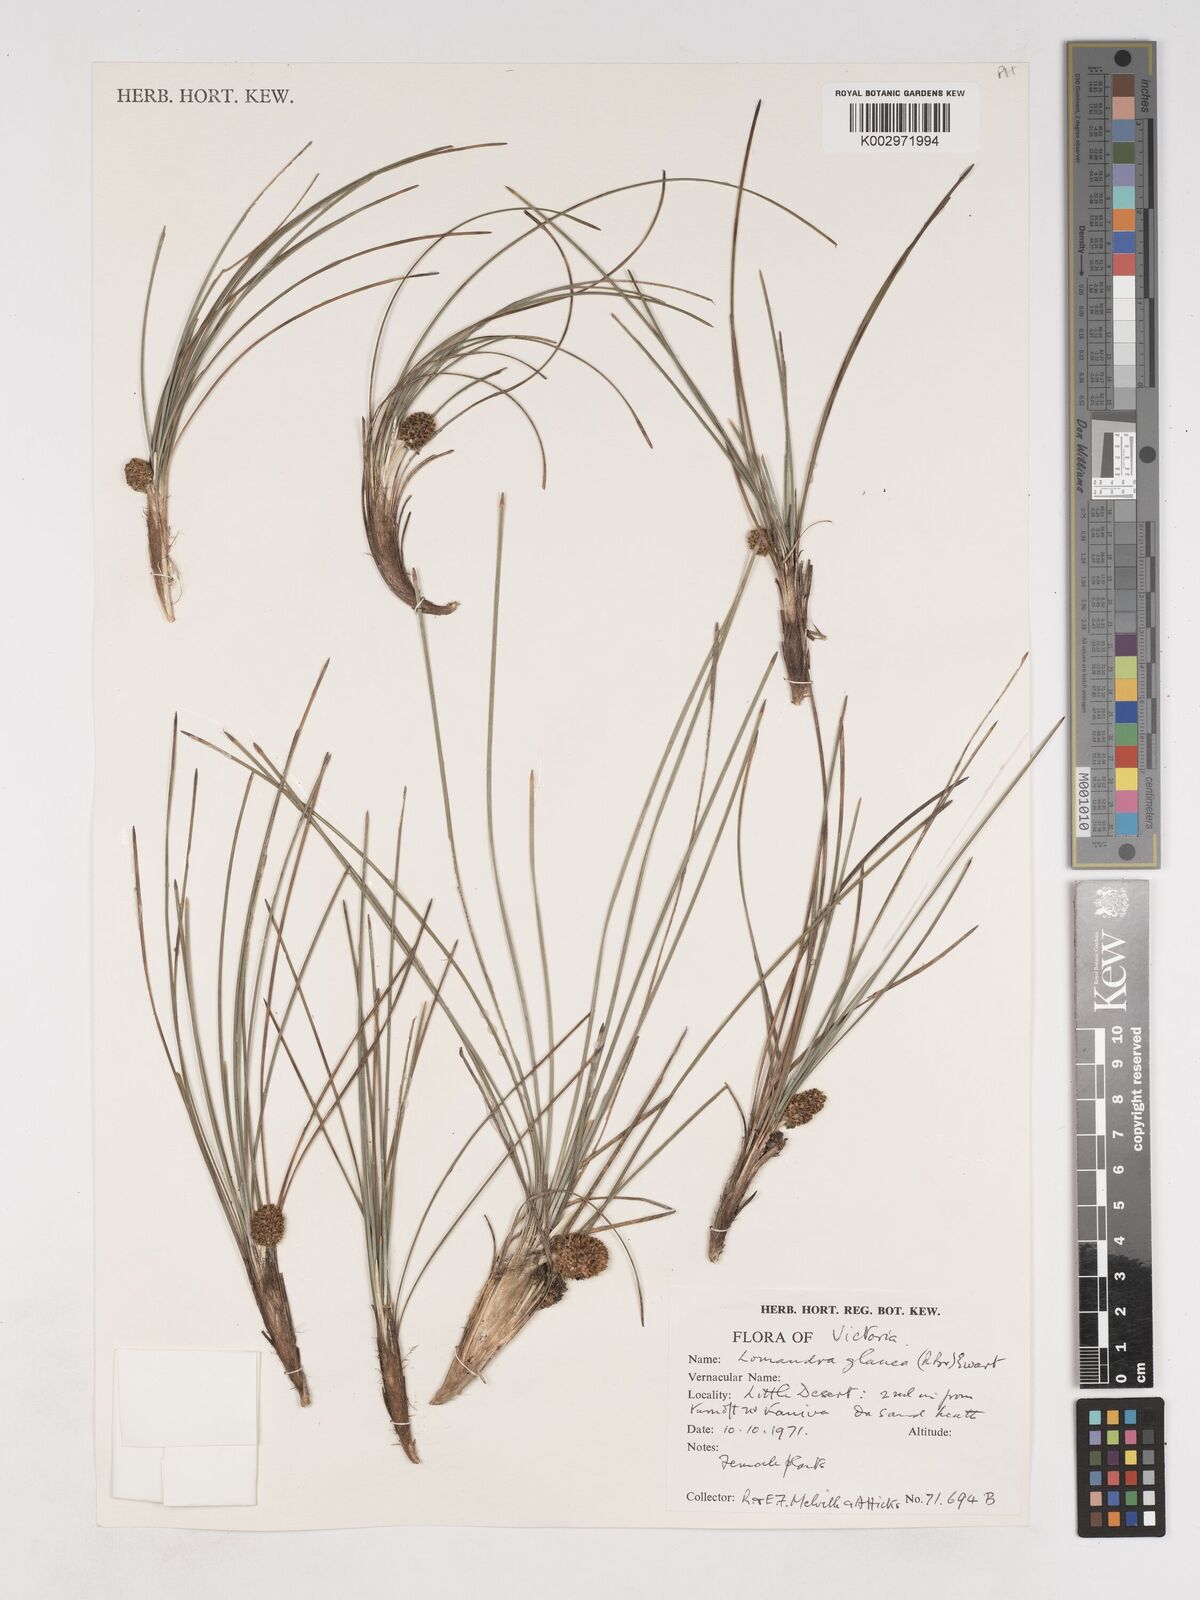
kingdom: Plantae
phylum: Tracheophyta
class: Liliopsida
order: Asparagales
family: Asparagaceae
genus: Lomandra
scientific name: Lomandra glauca
